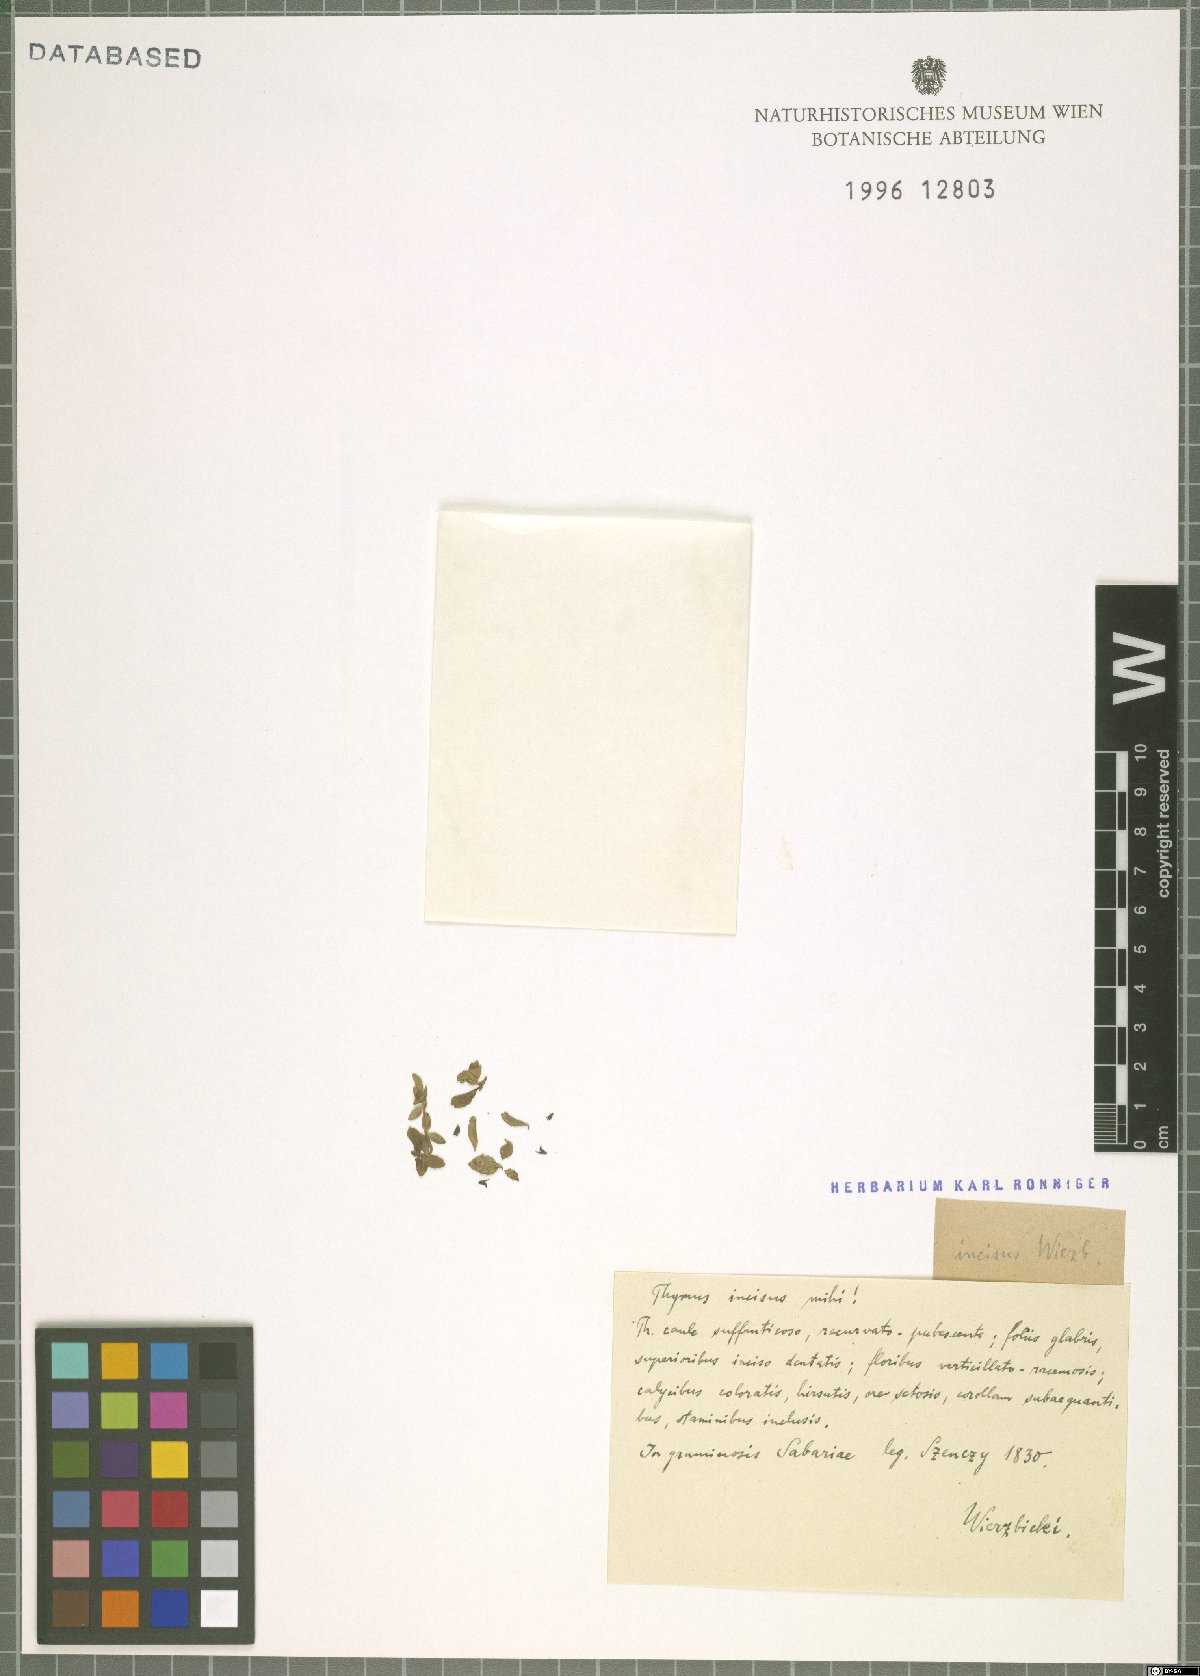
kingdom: Plantae
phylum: Tracheophyta
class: Magnoliopsida
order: Lamiales
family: Lamiaceae
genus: Thymus
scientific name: Thymus
